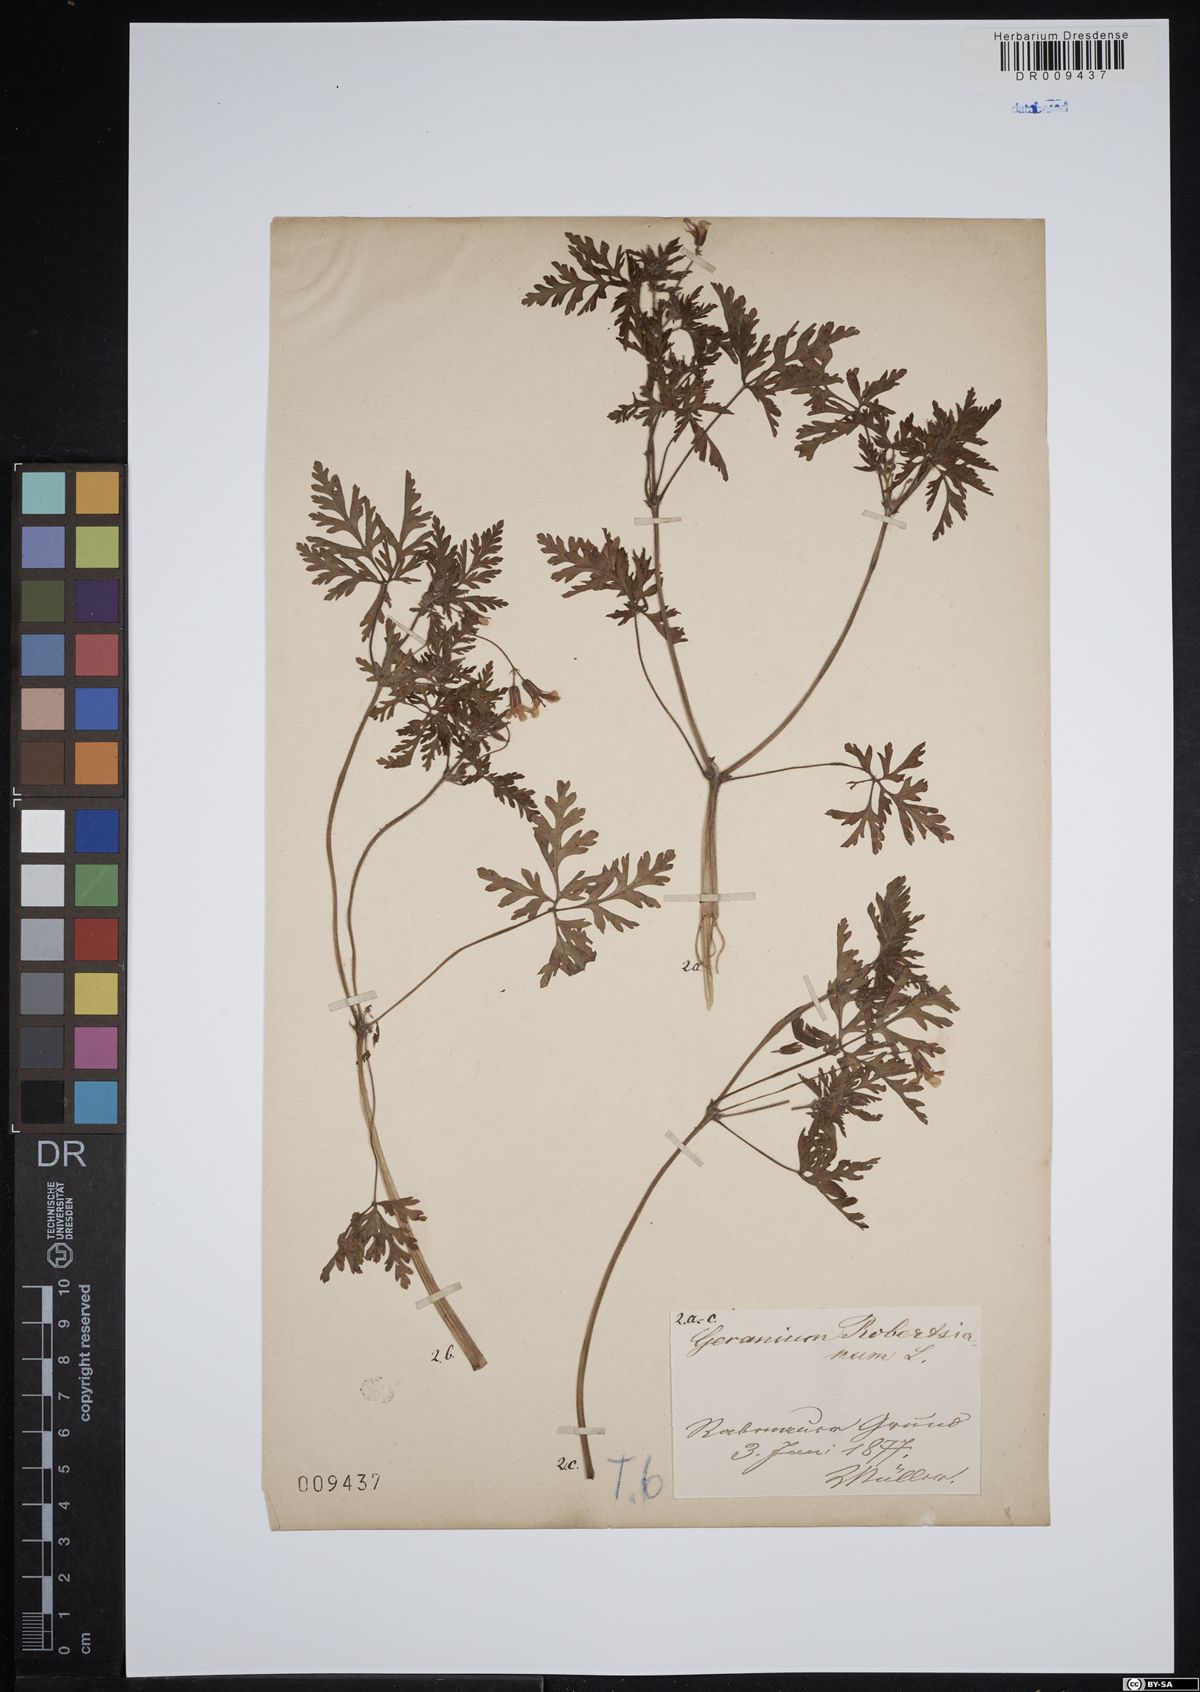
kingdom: Plantae
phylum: Tracheophyta
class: Magnoliopsida
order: Geraniales
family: Geraniaceae
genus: Geranium
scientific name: Geranium robertianum
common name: Herb-robert
